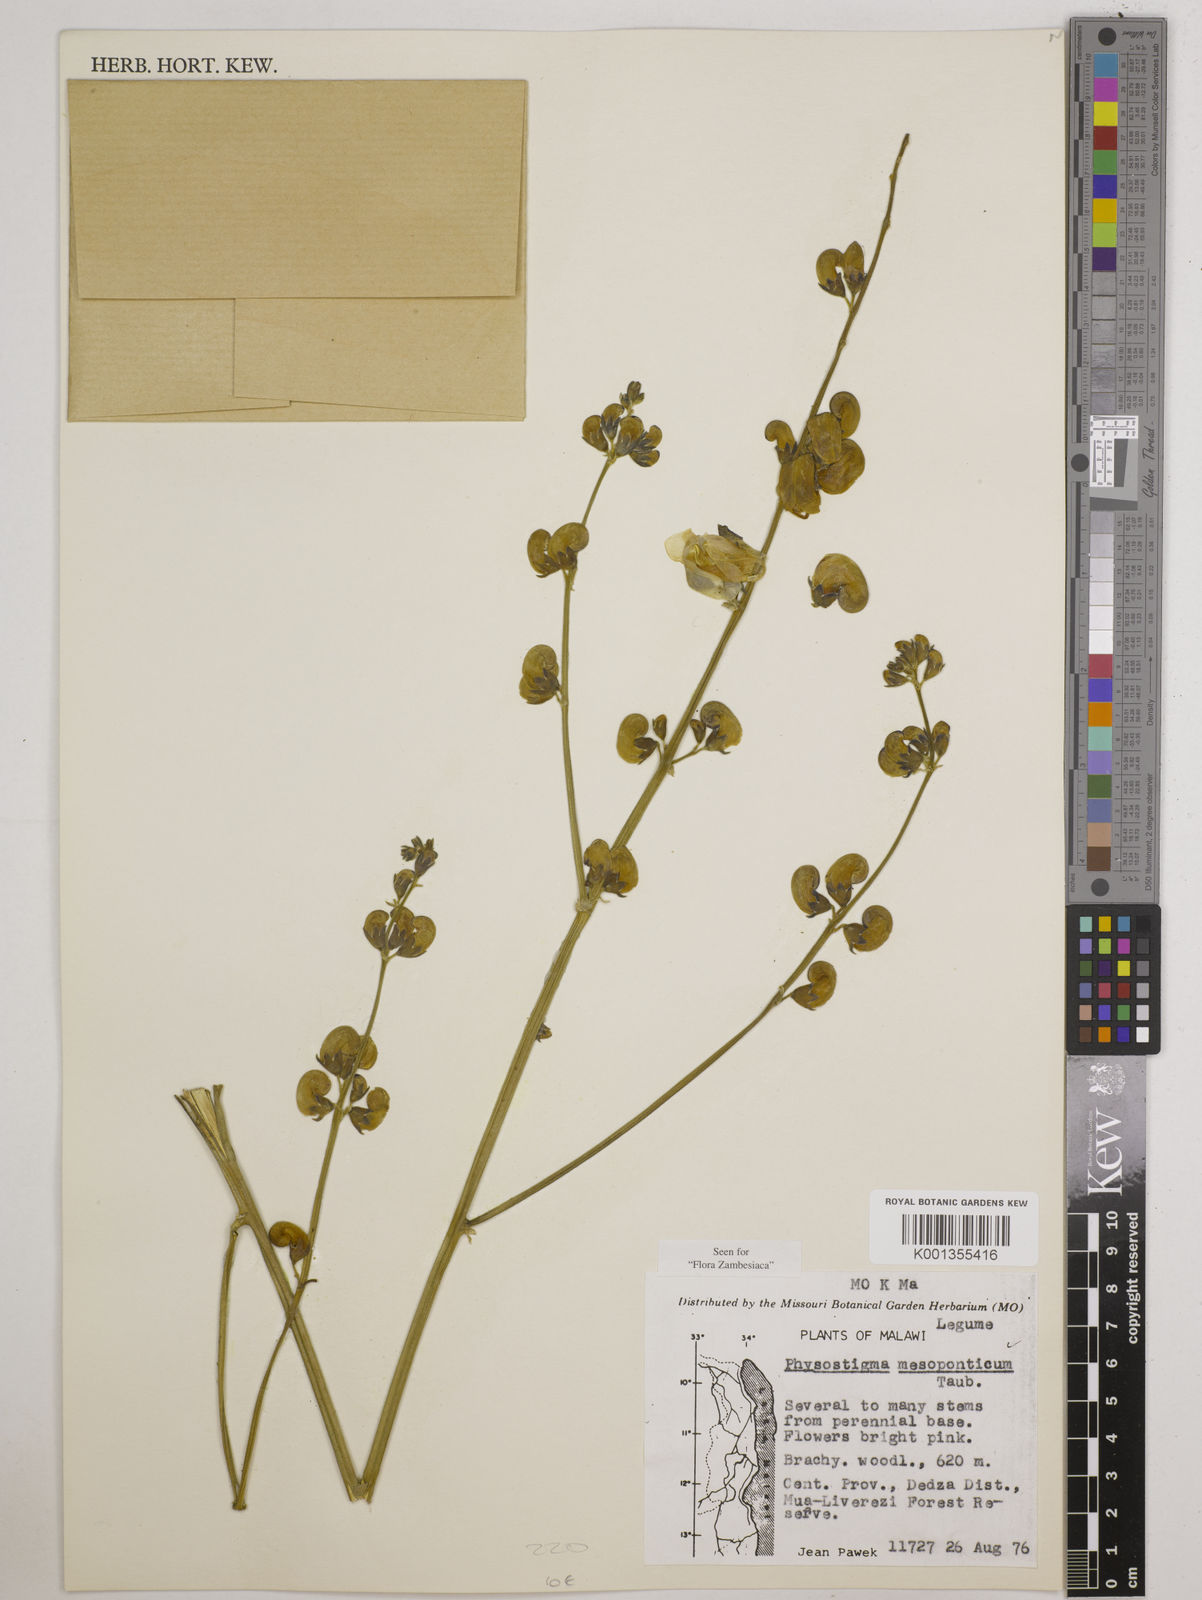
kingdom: Plantae
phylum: Tracheophyta
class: Magnoliopsida
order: Fabales
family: Fabaceae
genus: Physostigma
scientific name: Physostigma mesoponticum
